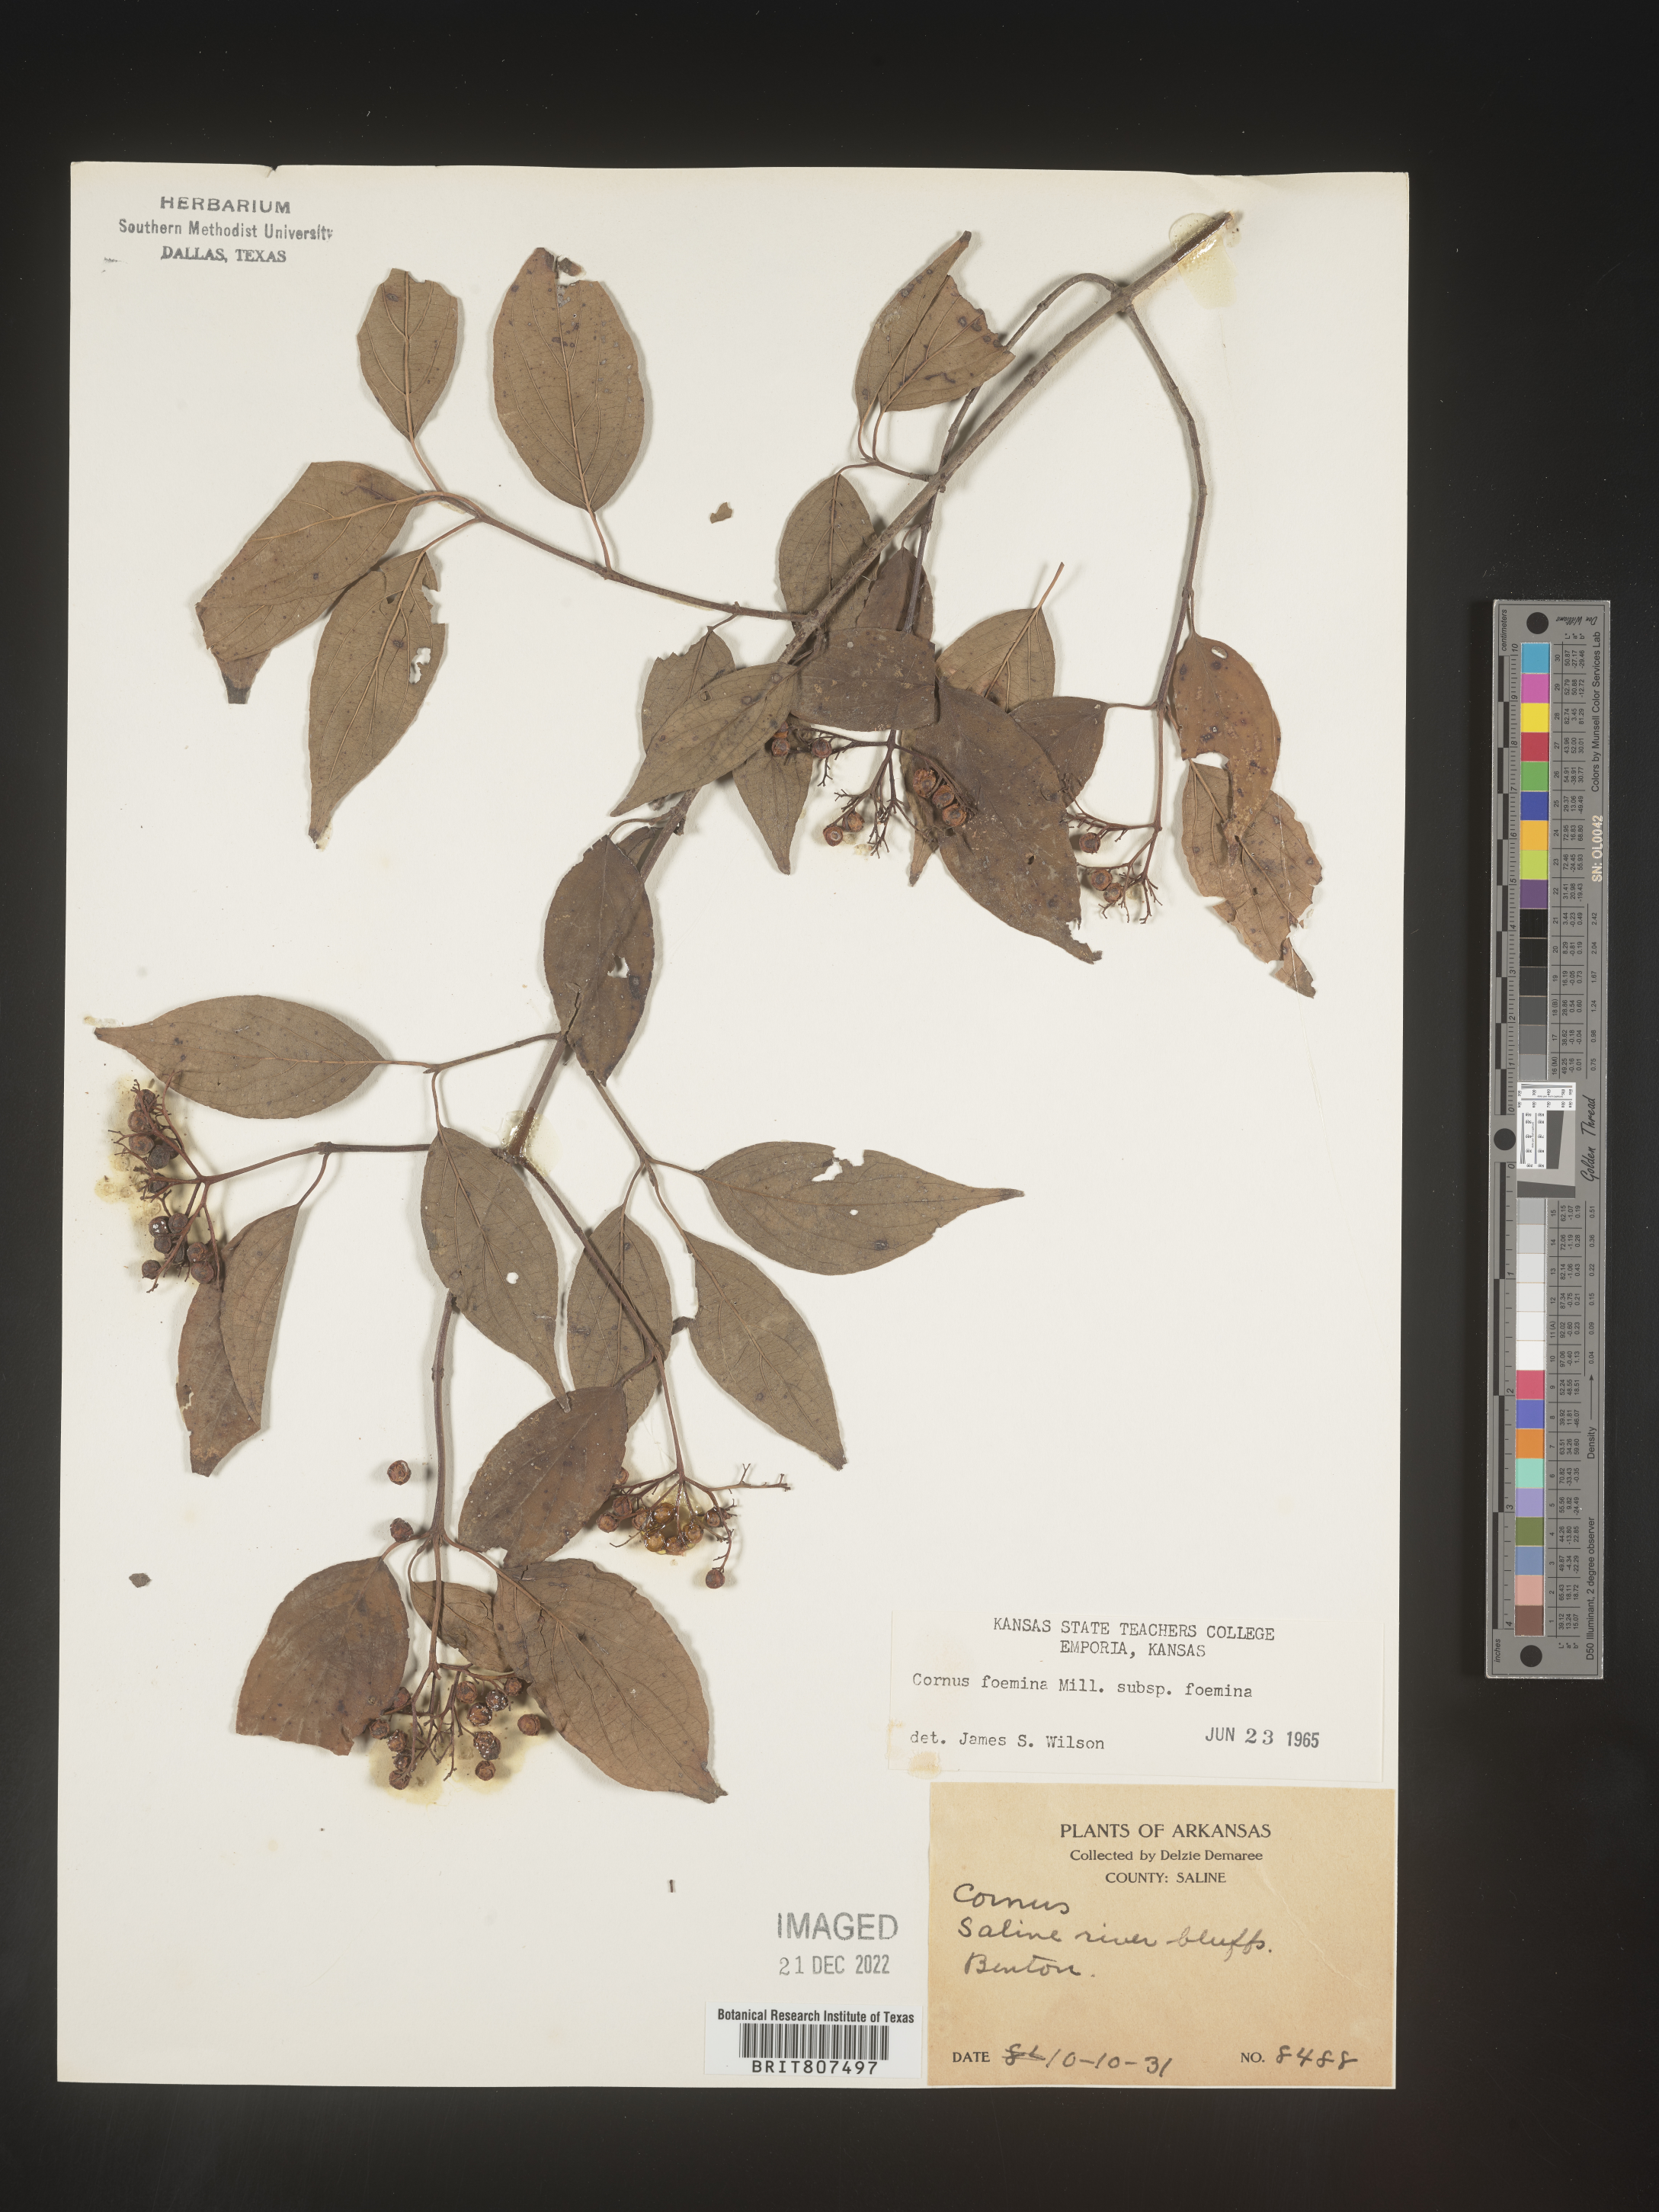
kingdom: Plantae
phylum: Tracheophyta
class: Magnoliopsida
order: Cornales
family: Cornaceae
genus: Cornus
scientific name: Cornus foemina
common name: Swamp dogwood
